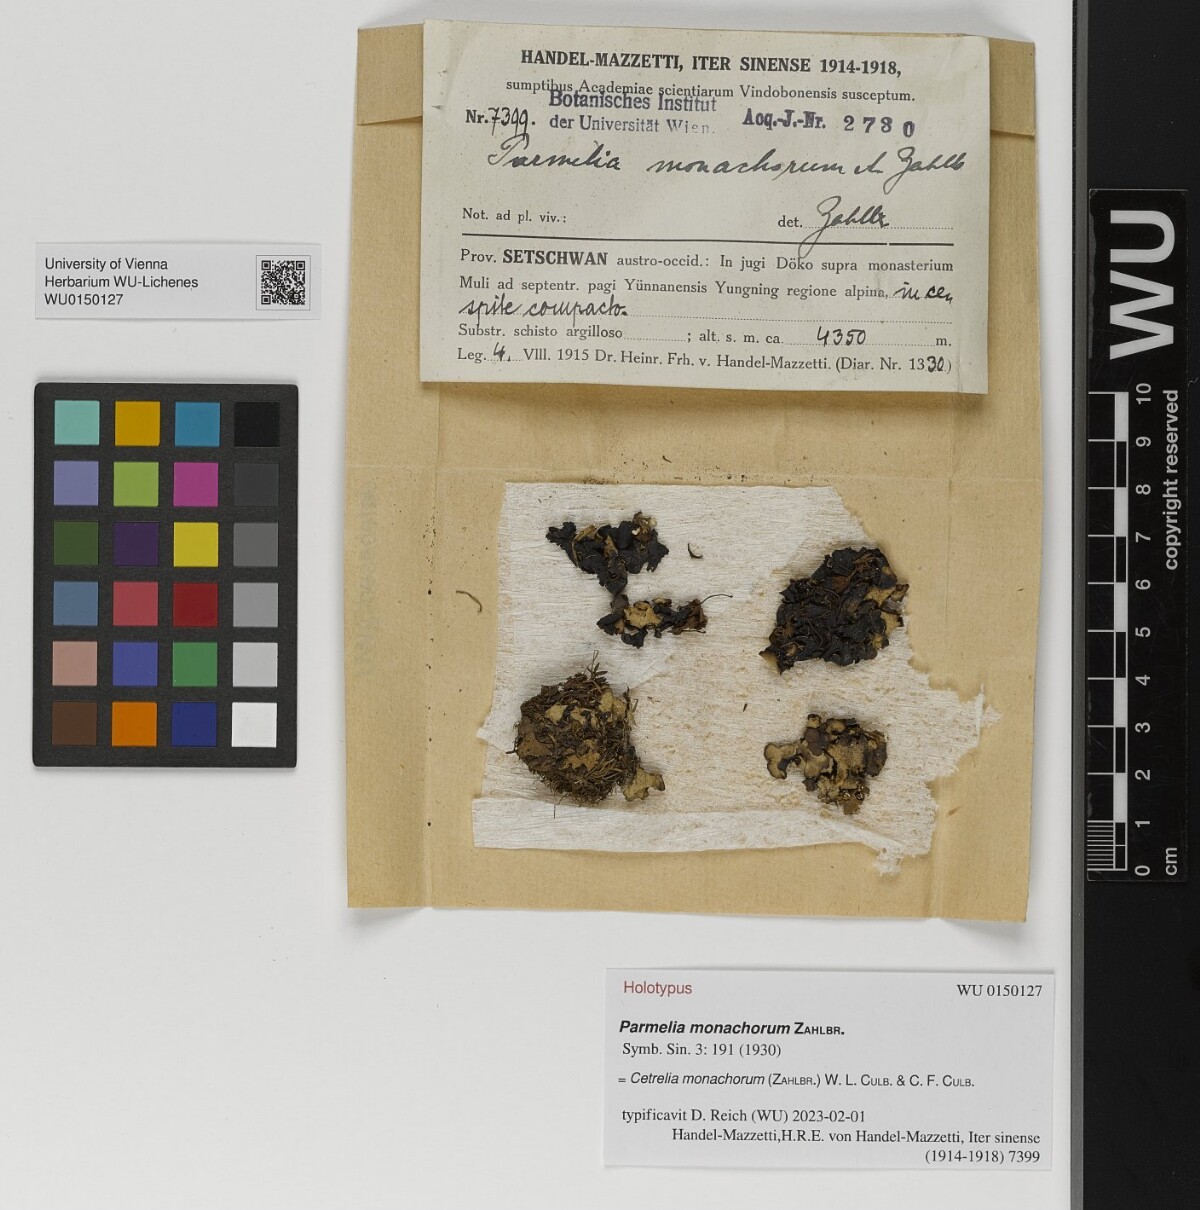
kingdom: Fungi
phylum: Ascomycota
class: Lecanoromycetes
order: Lecanorales
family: Parmeliaceae
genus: Cetrelia
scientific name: Cetrelia monachorum
